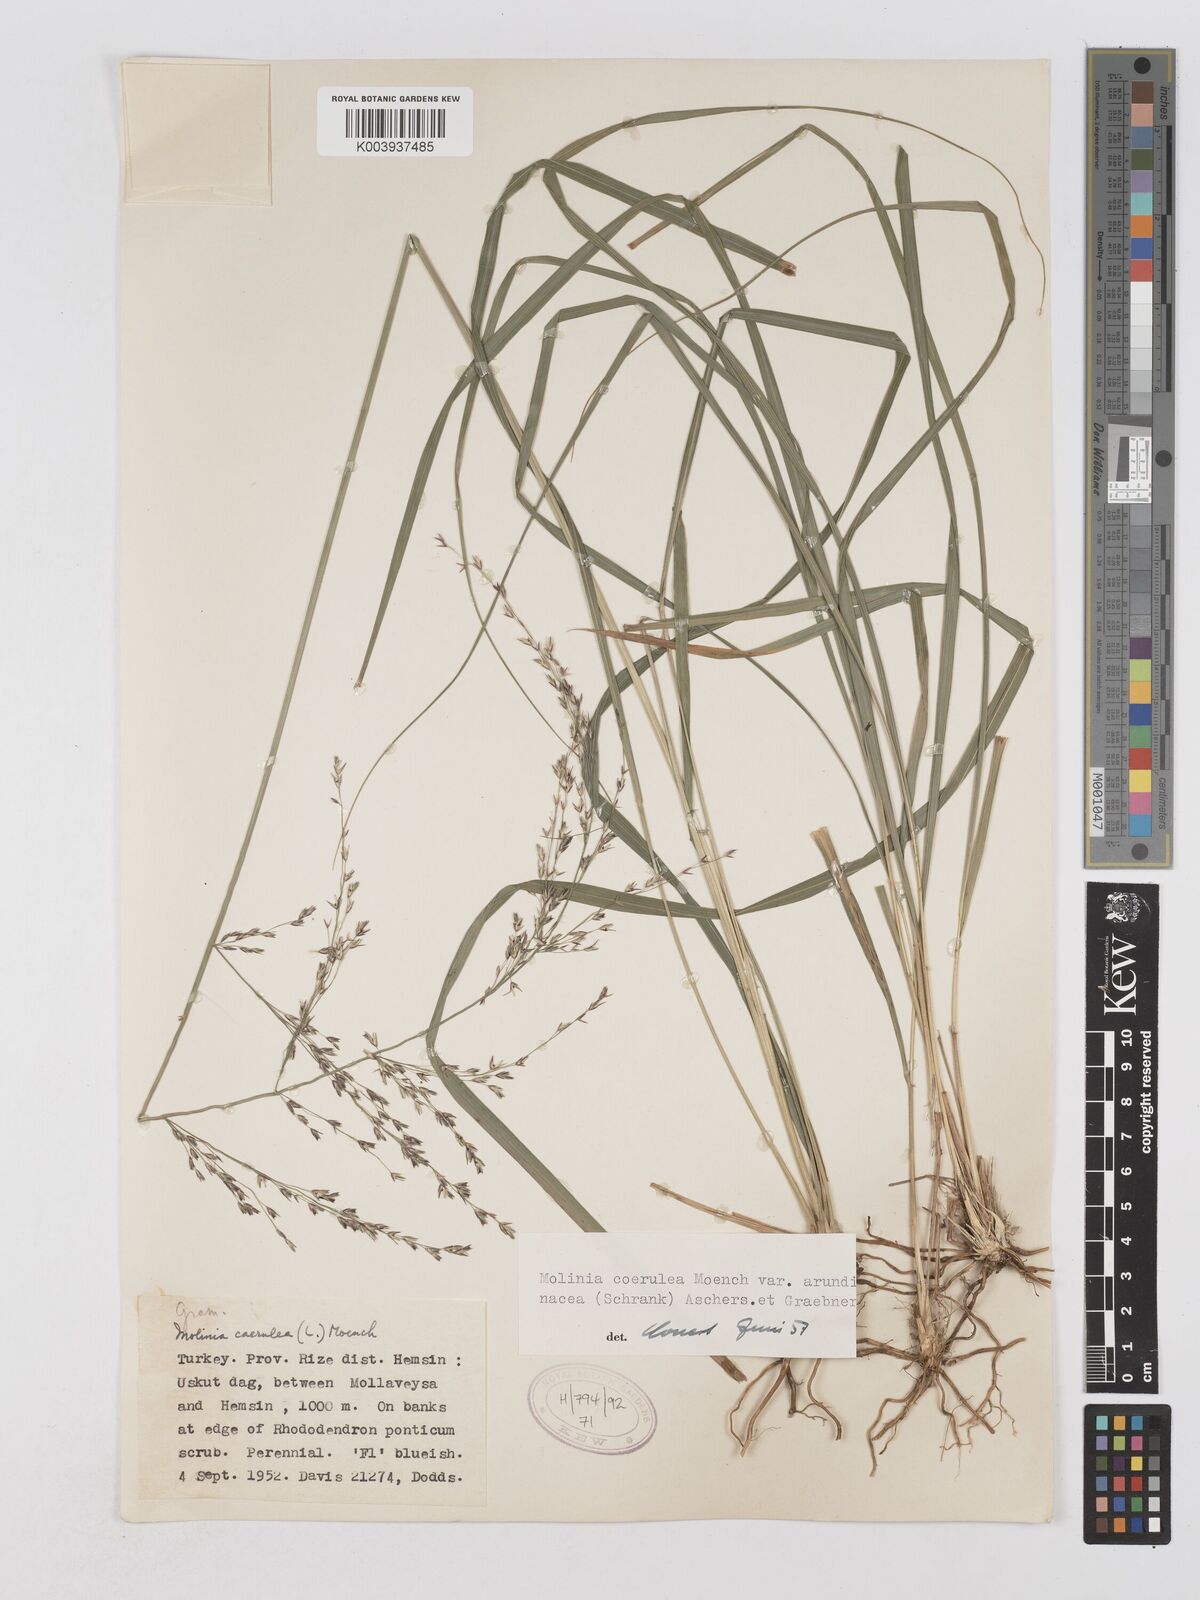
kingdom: Plantae
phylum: Tracheophyta
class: Liliopsida
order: Poales
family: Poaceae
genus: Molinia
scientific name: Molinia caerulea
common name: Purple moor-grass
